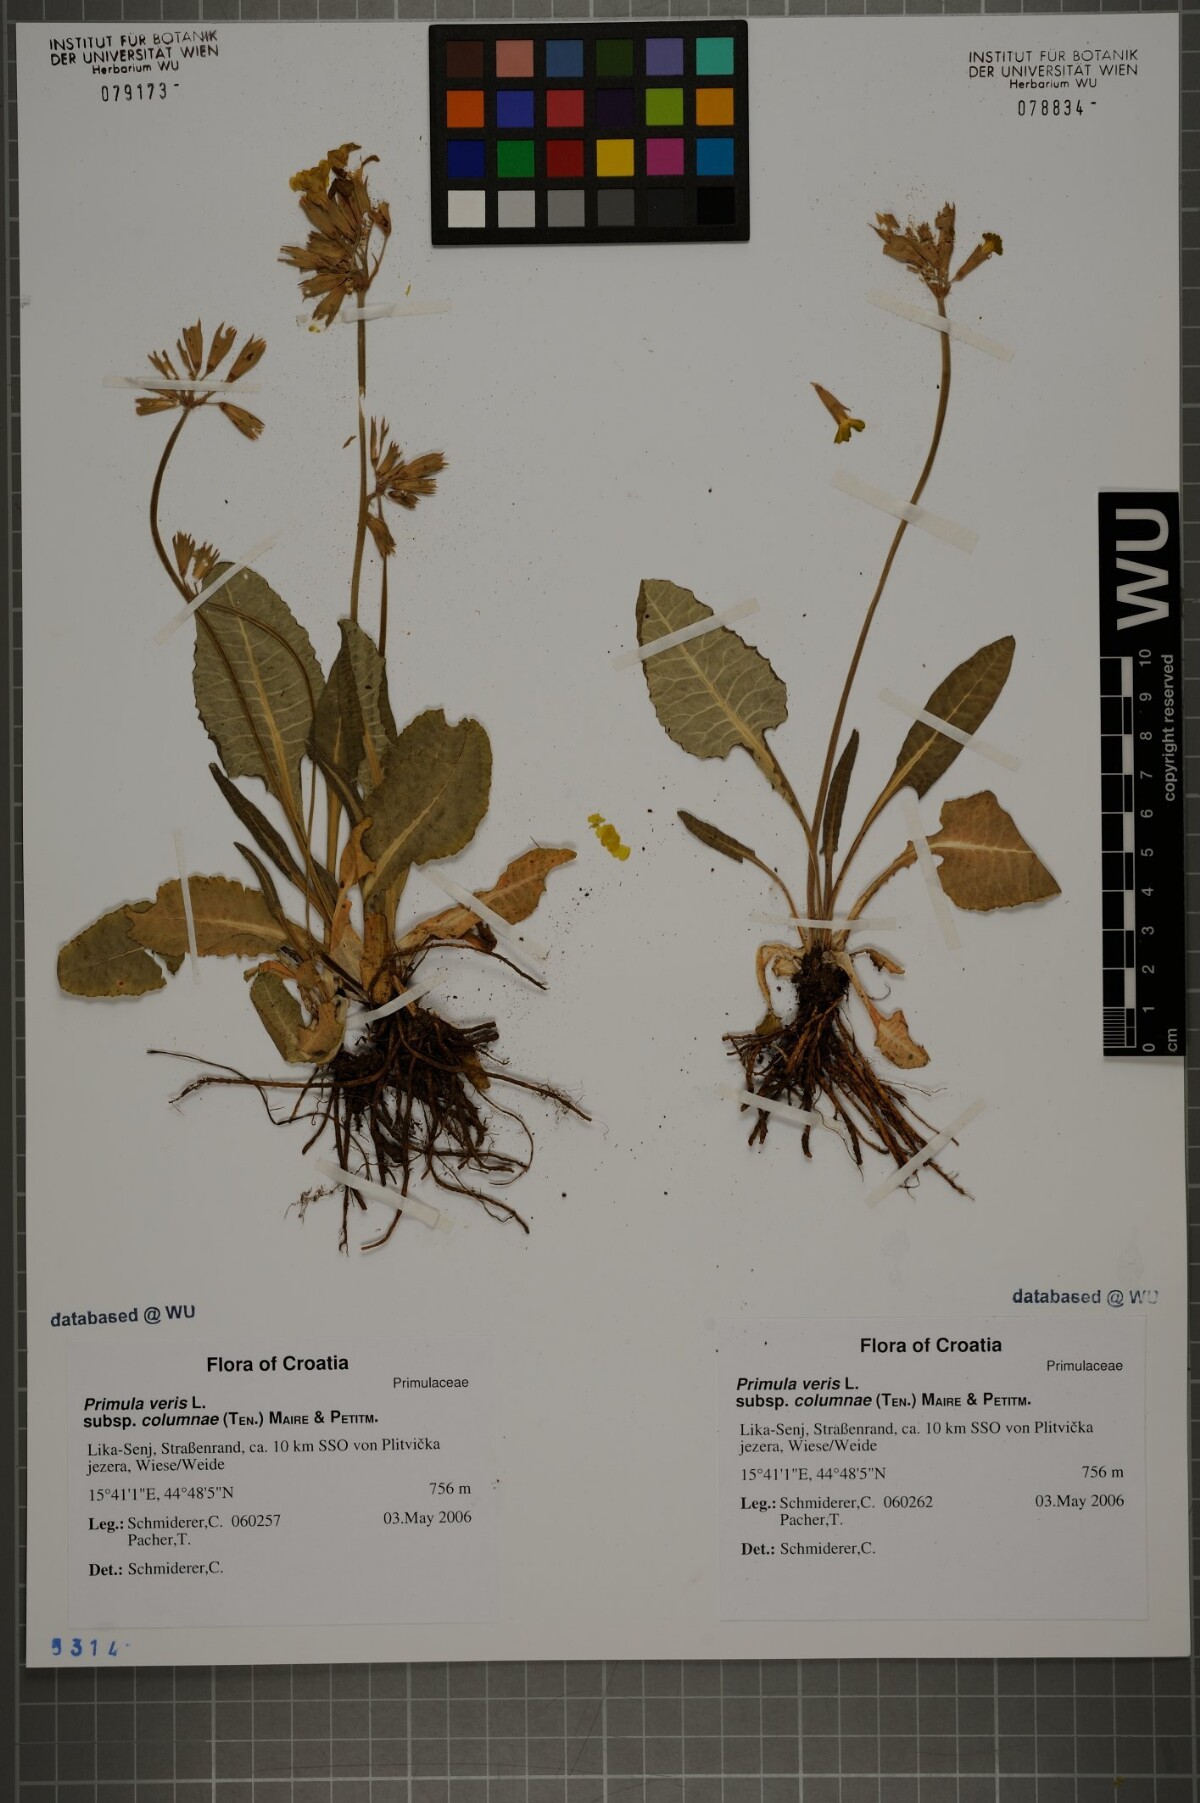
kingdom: Plantae
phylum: Tracheophyta
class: Magnoliopsida
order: Ericales
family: Primulaceae
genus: Primula
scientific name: Primula veris
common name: Cowslip
